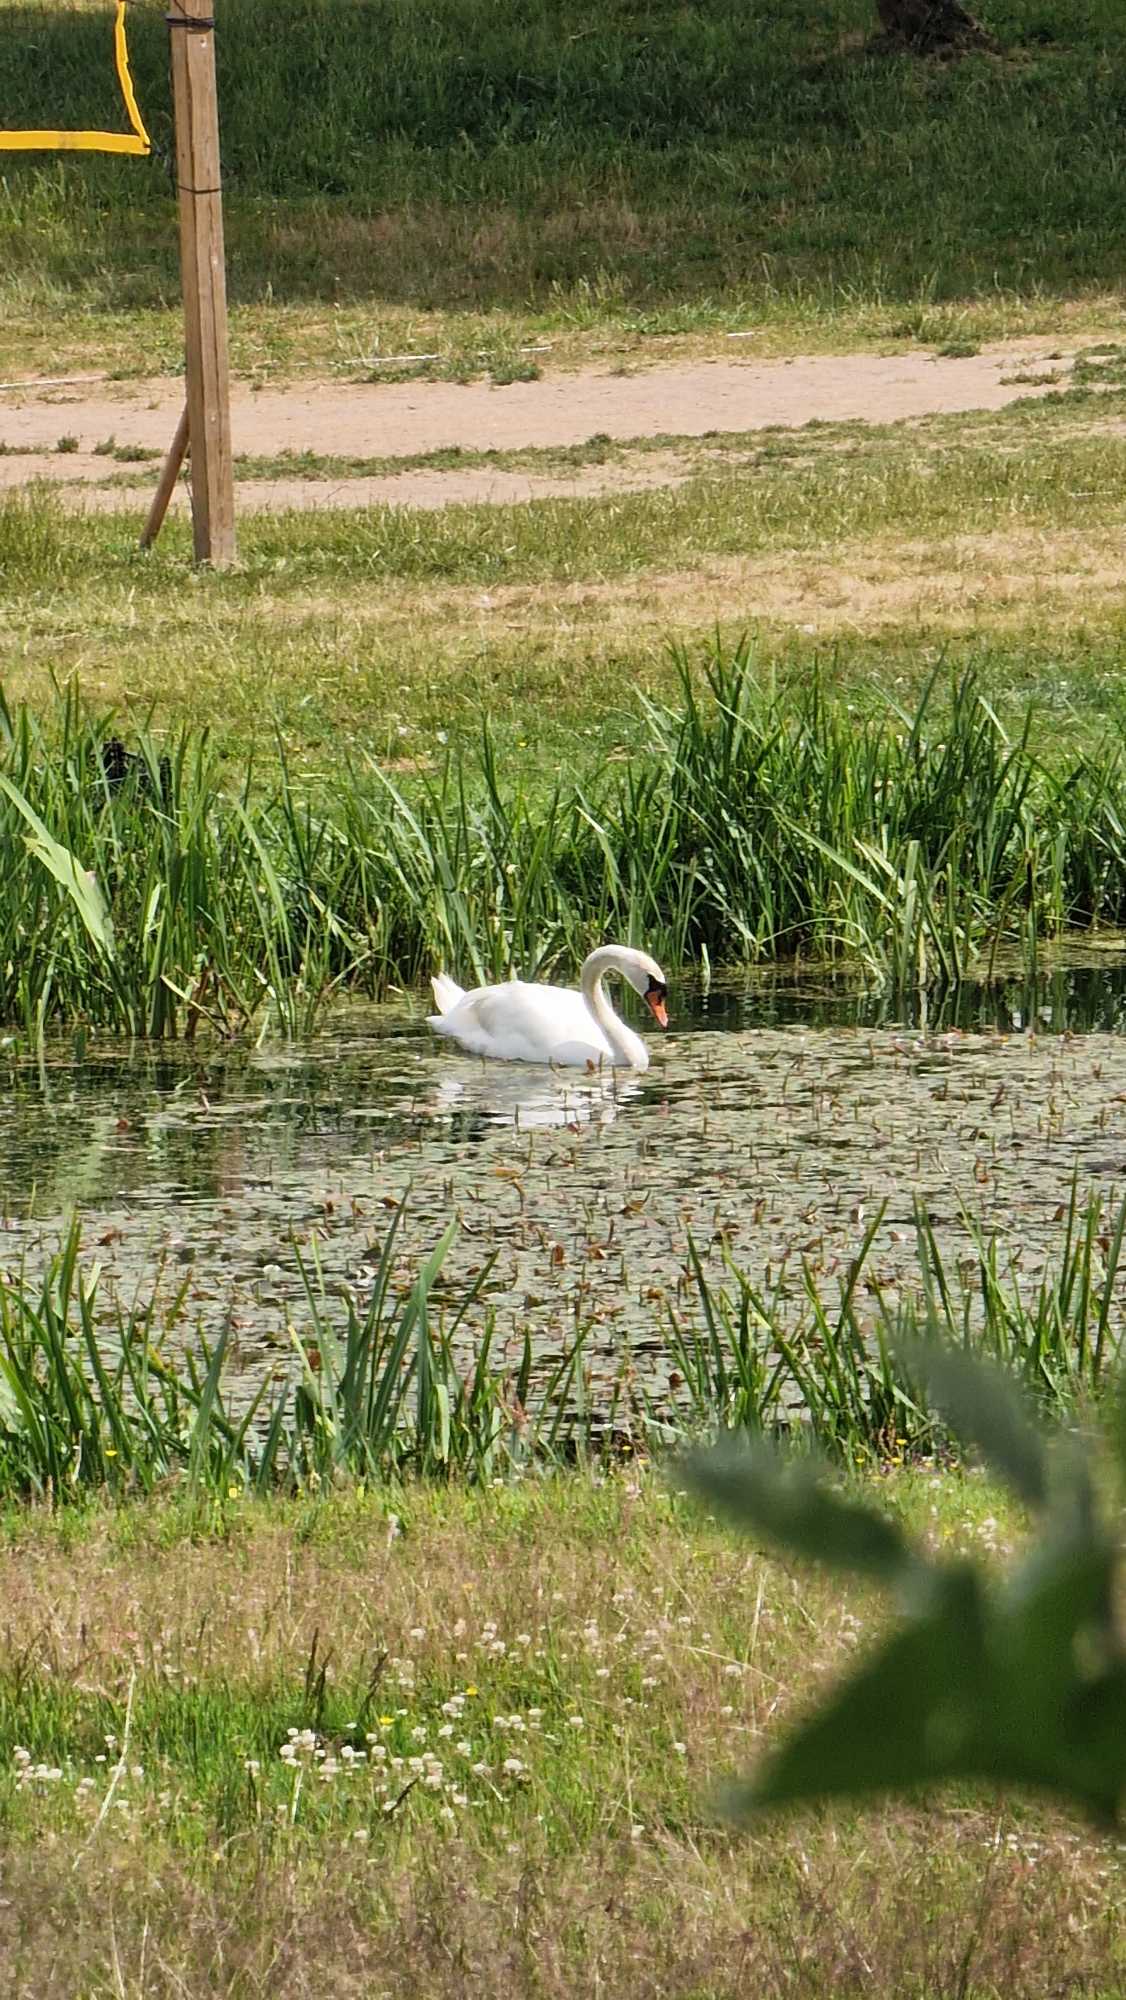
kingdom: Animalia
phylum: Chordata
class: Aves
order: Anseriformes
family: Anatidae
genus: Cygnus
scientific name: Cygnus olor
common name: Knopsvane
